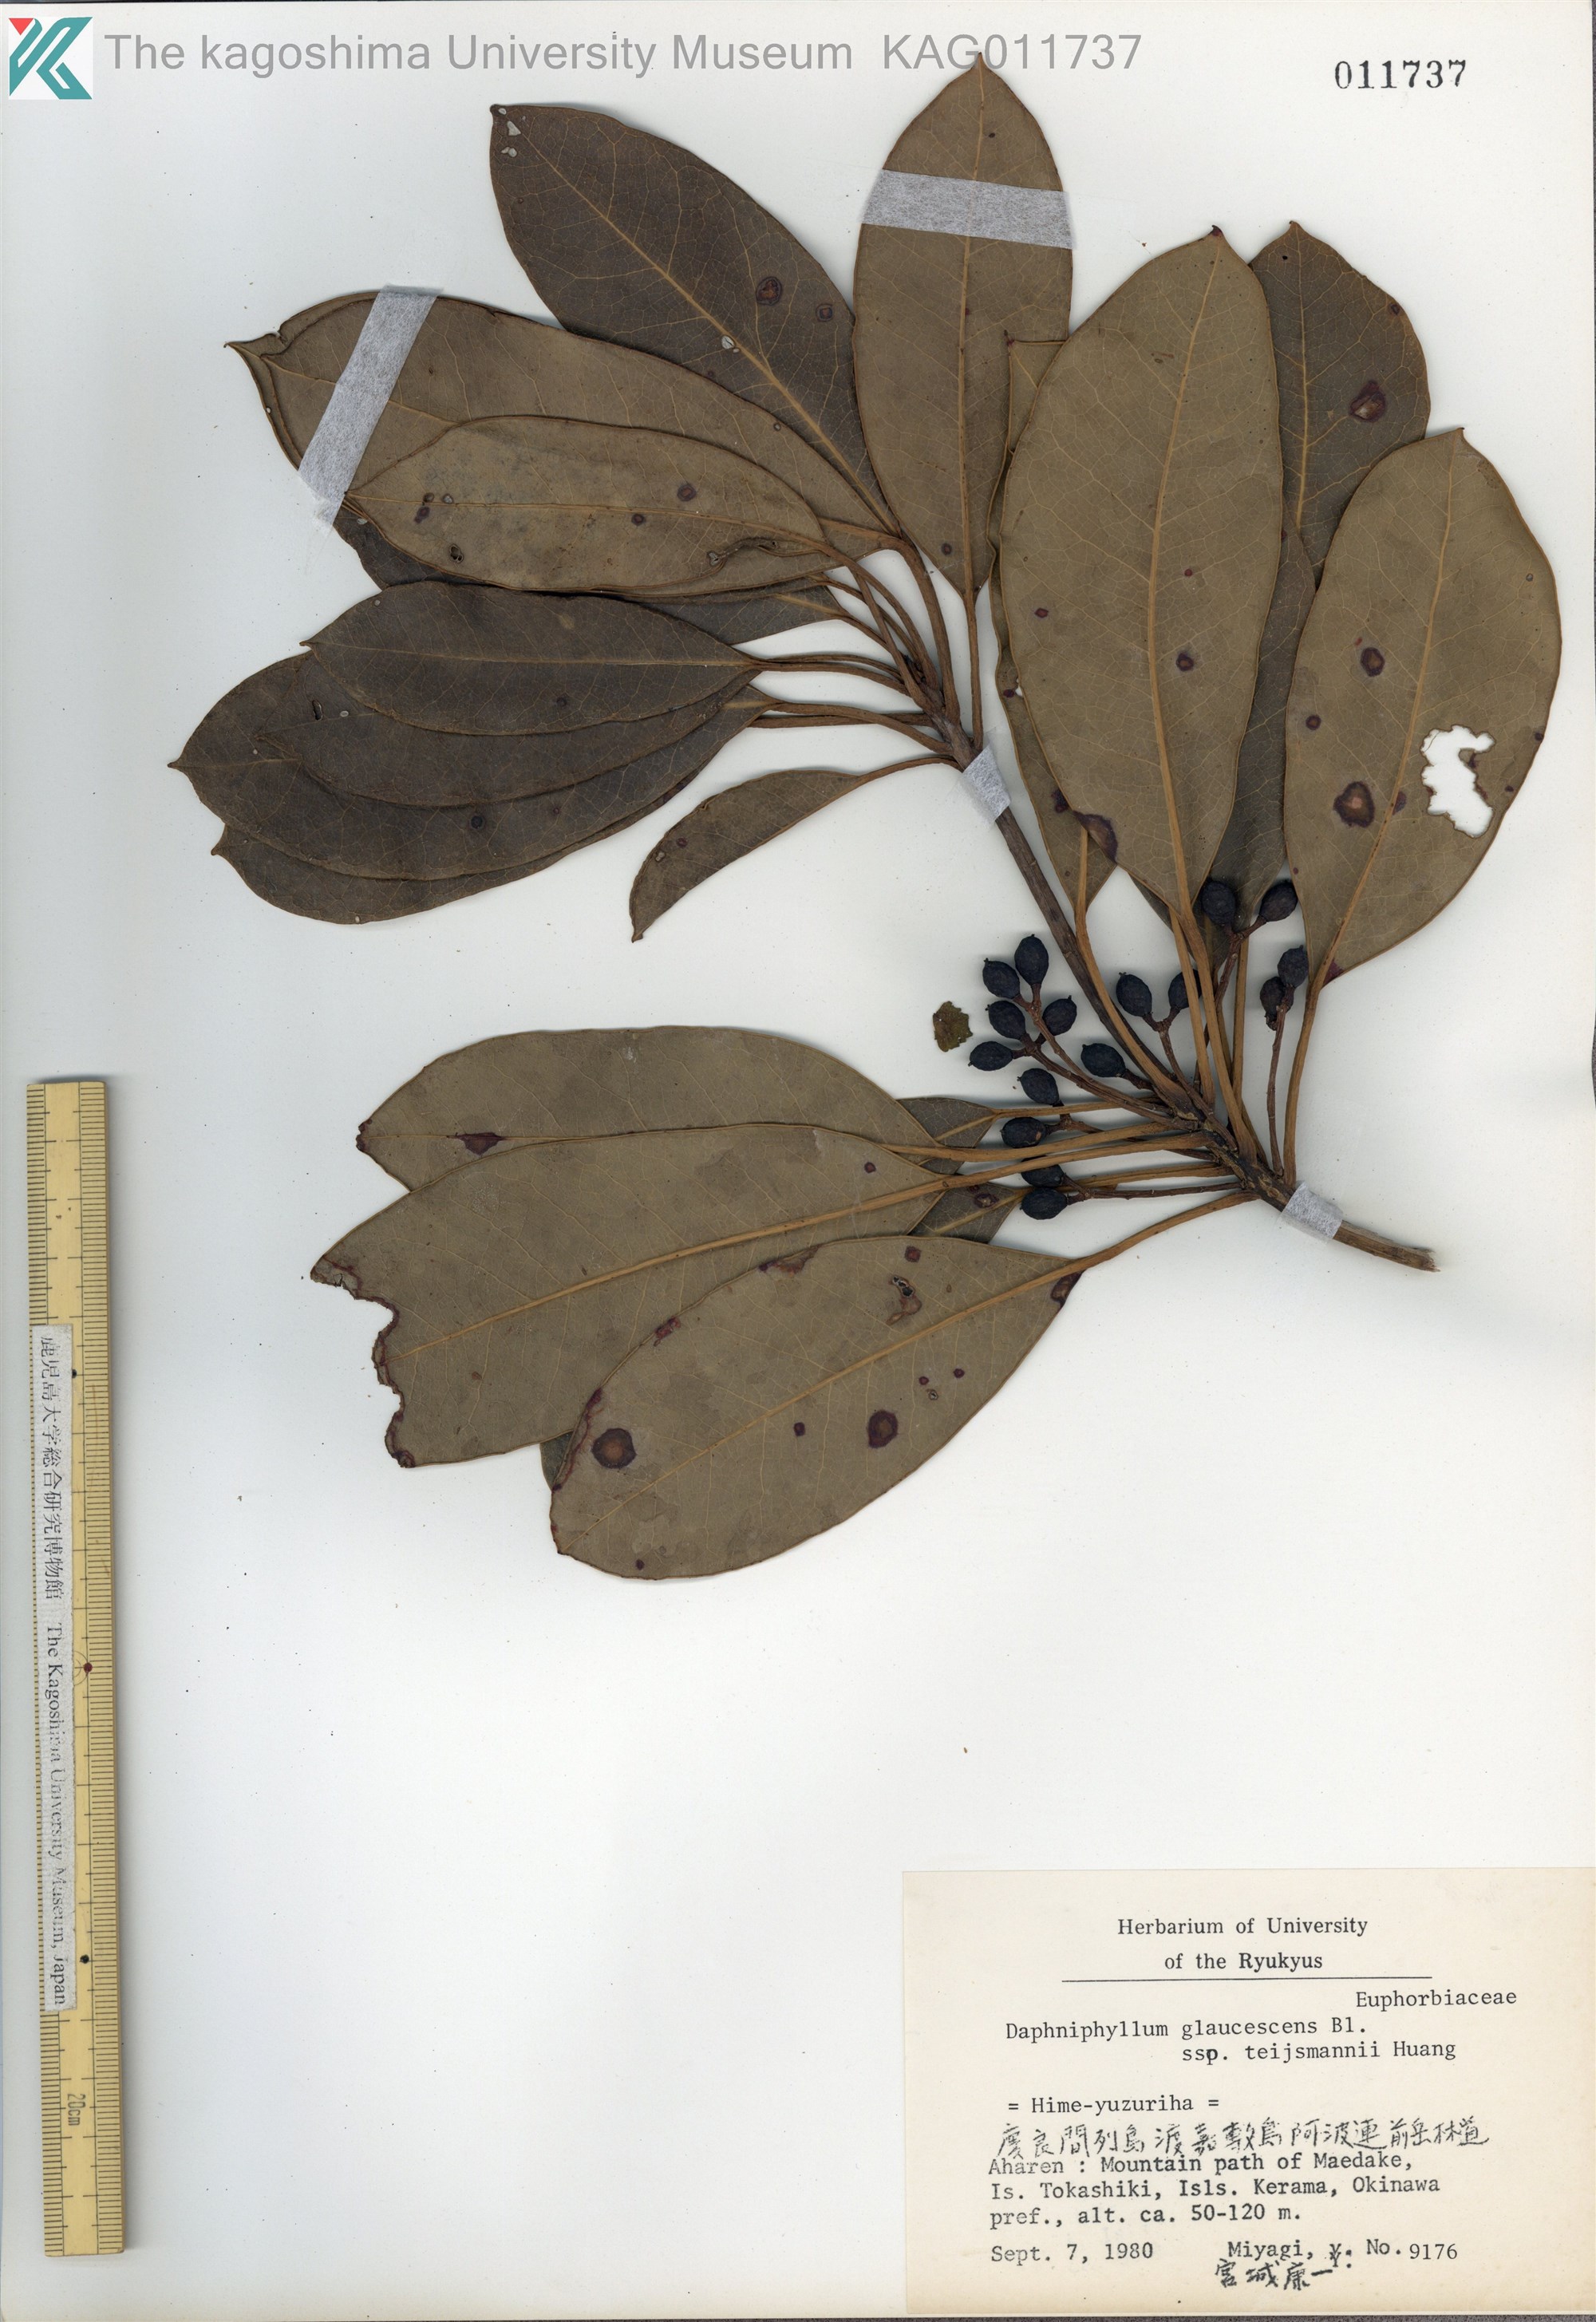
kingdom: Plantae
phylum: Tracheophyta
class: Magnoliopsida
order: Saxifragales
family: Daphniphyllaceae
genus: Daphniphyllum
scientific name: Daphniphyllum teijsmannii
